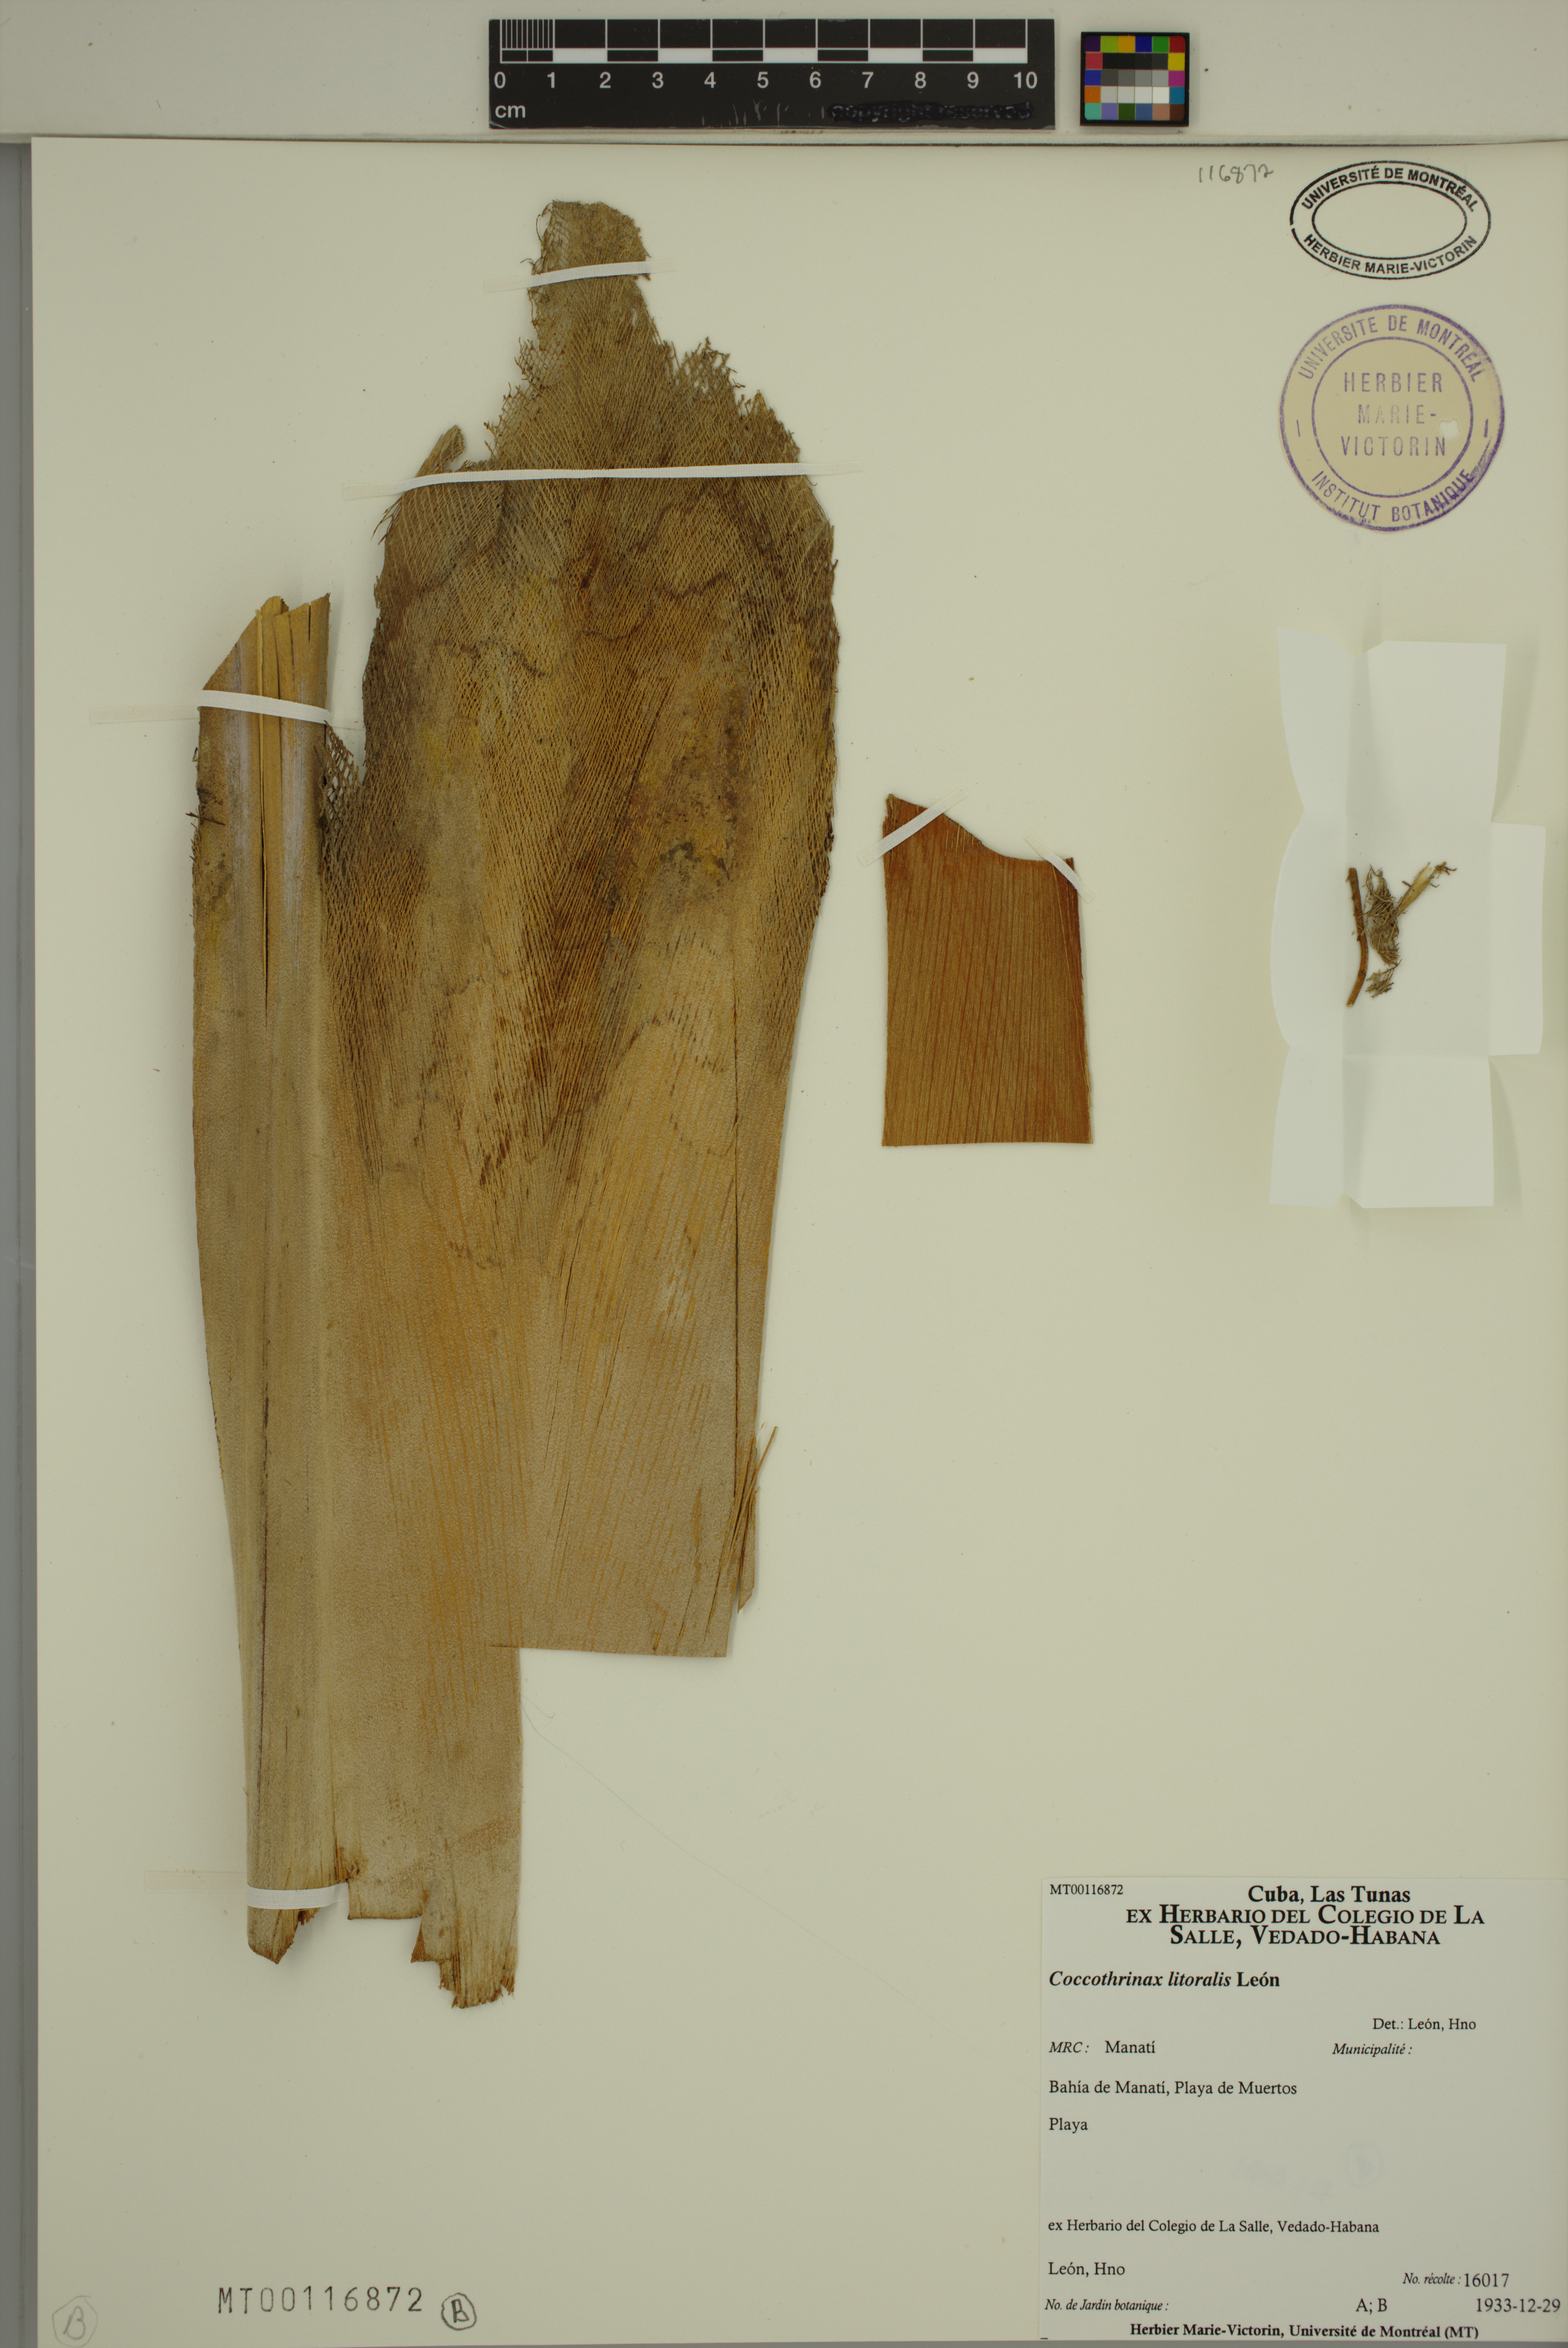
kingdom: Plantae
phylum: Tracheophyta
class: Liliopsida
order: Arecales
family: Arecaceae
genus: Coccothrinax
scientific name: Coccothrinax litoralis
